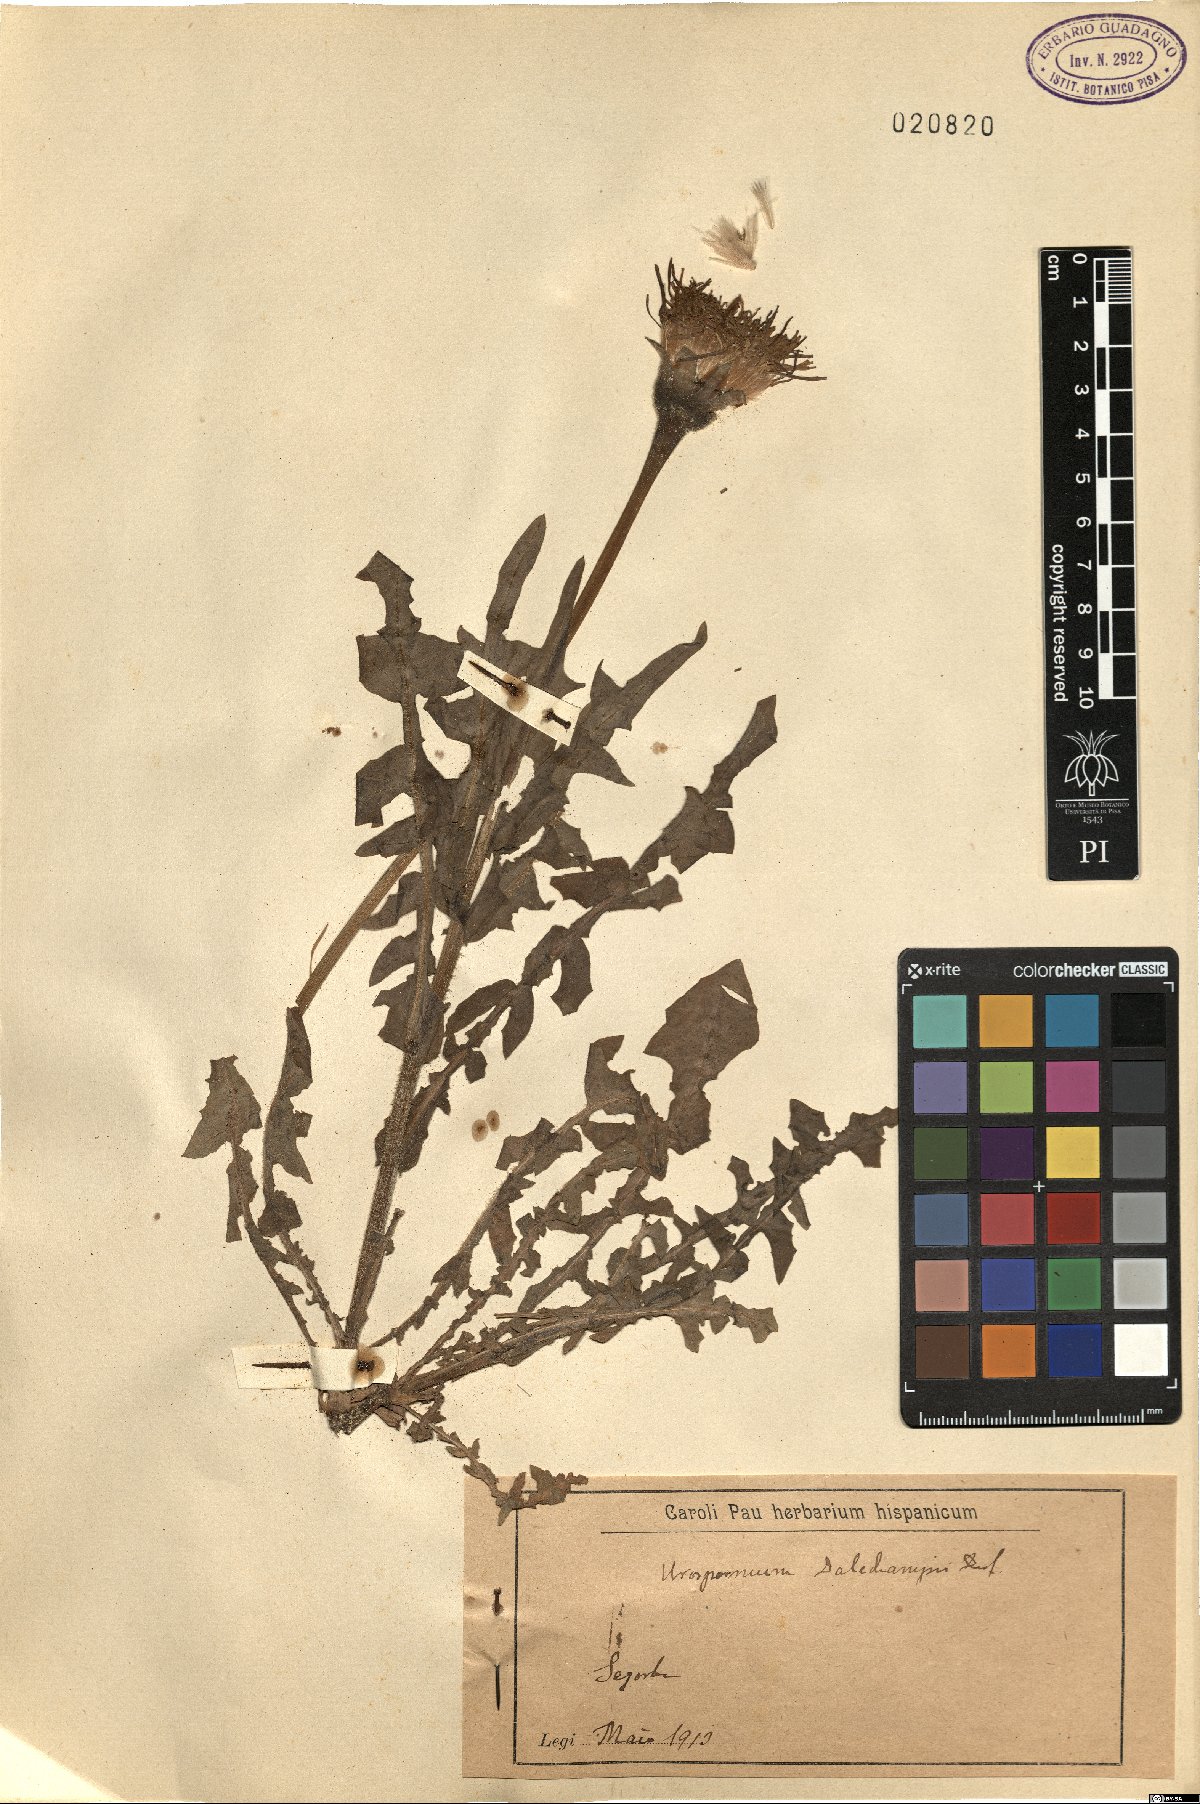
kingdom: Plantae
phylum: Tracheophyta
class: Magnoliopsida
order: Asterales
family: Asteraceae
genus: Urospermum
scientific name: Urospermum dalechampii
